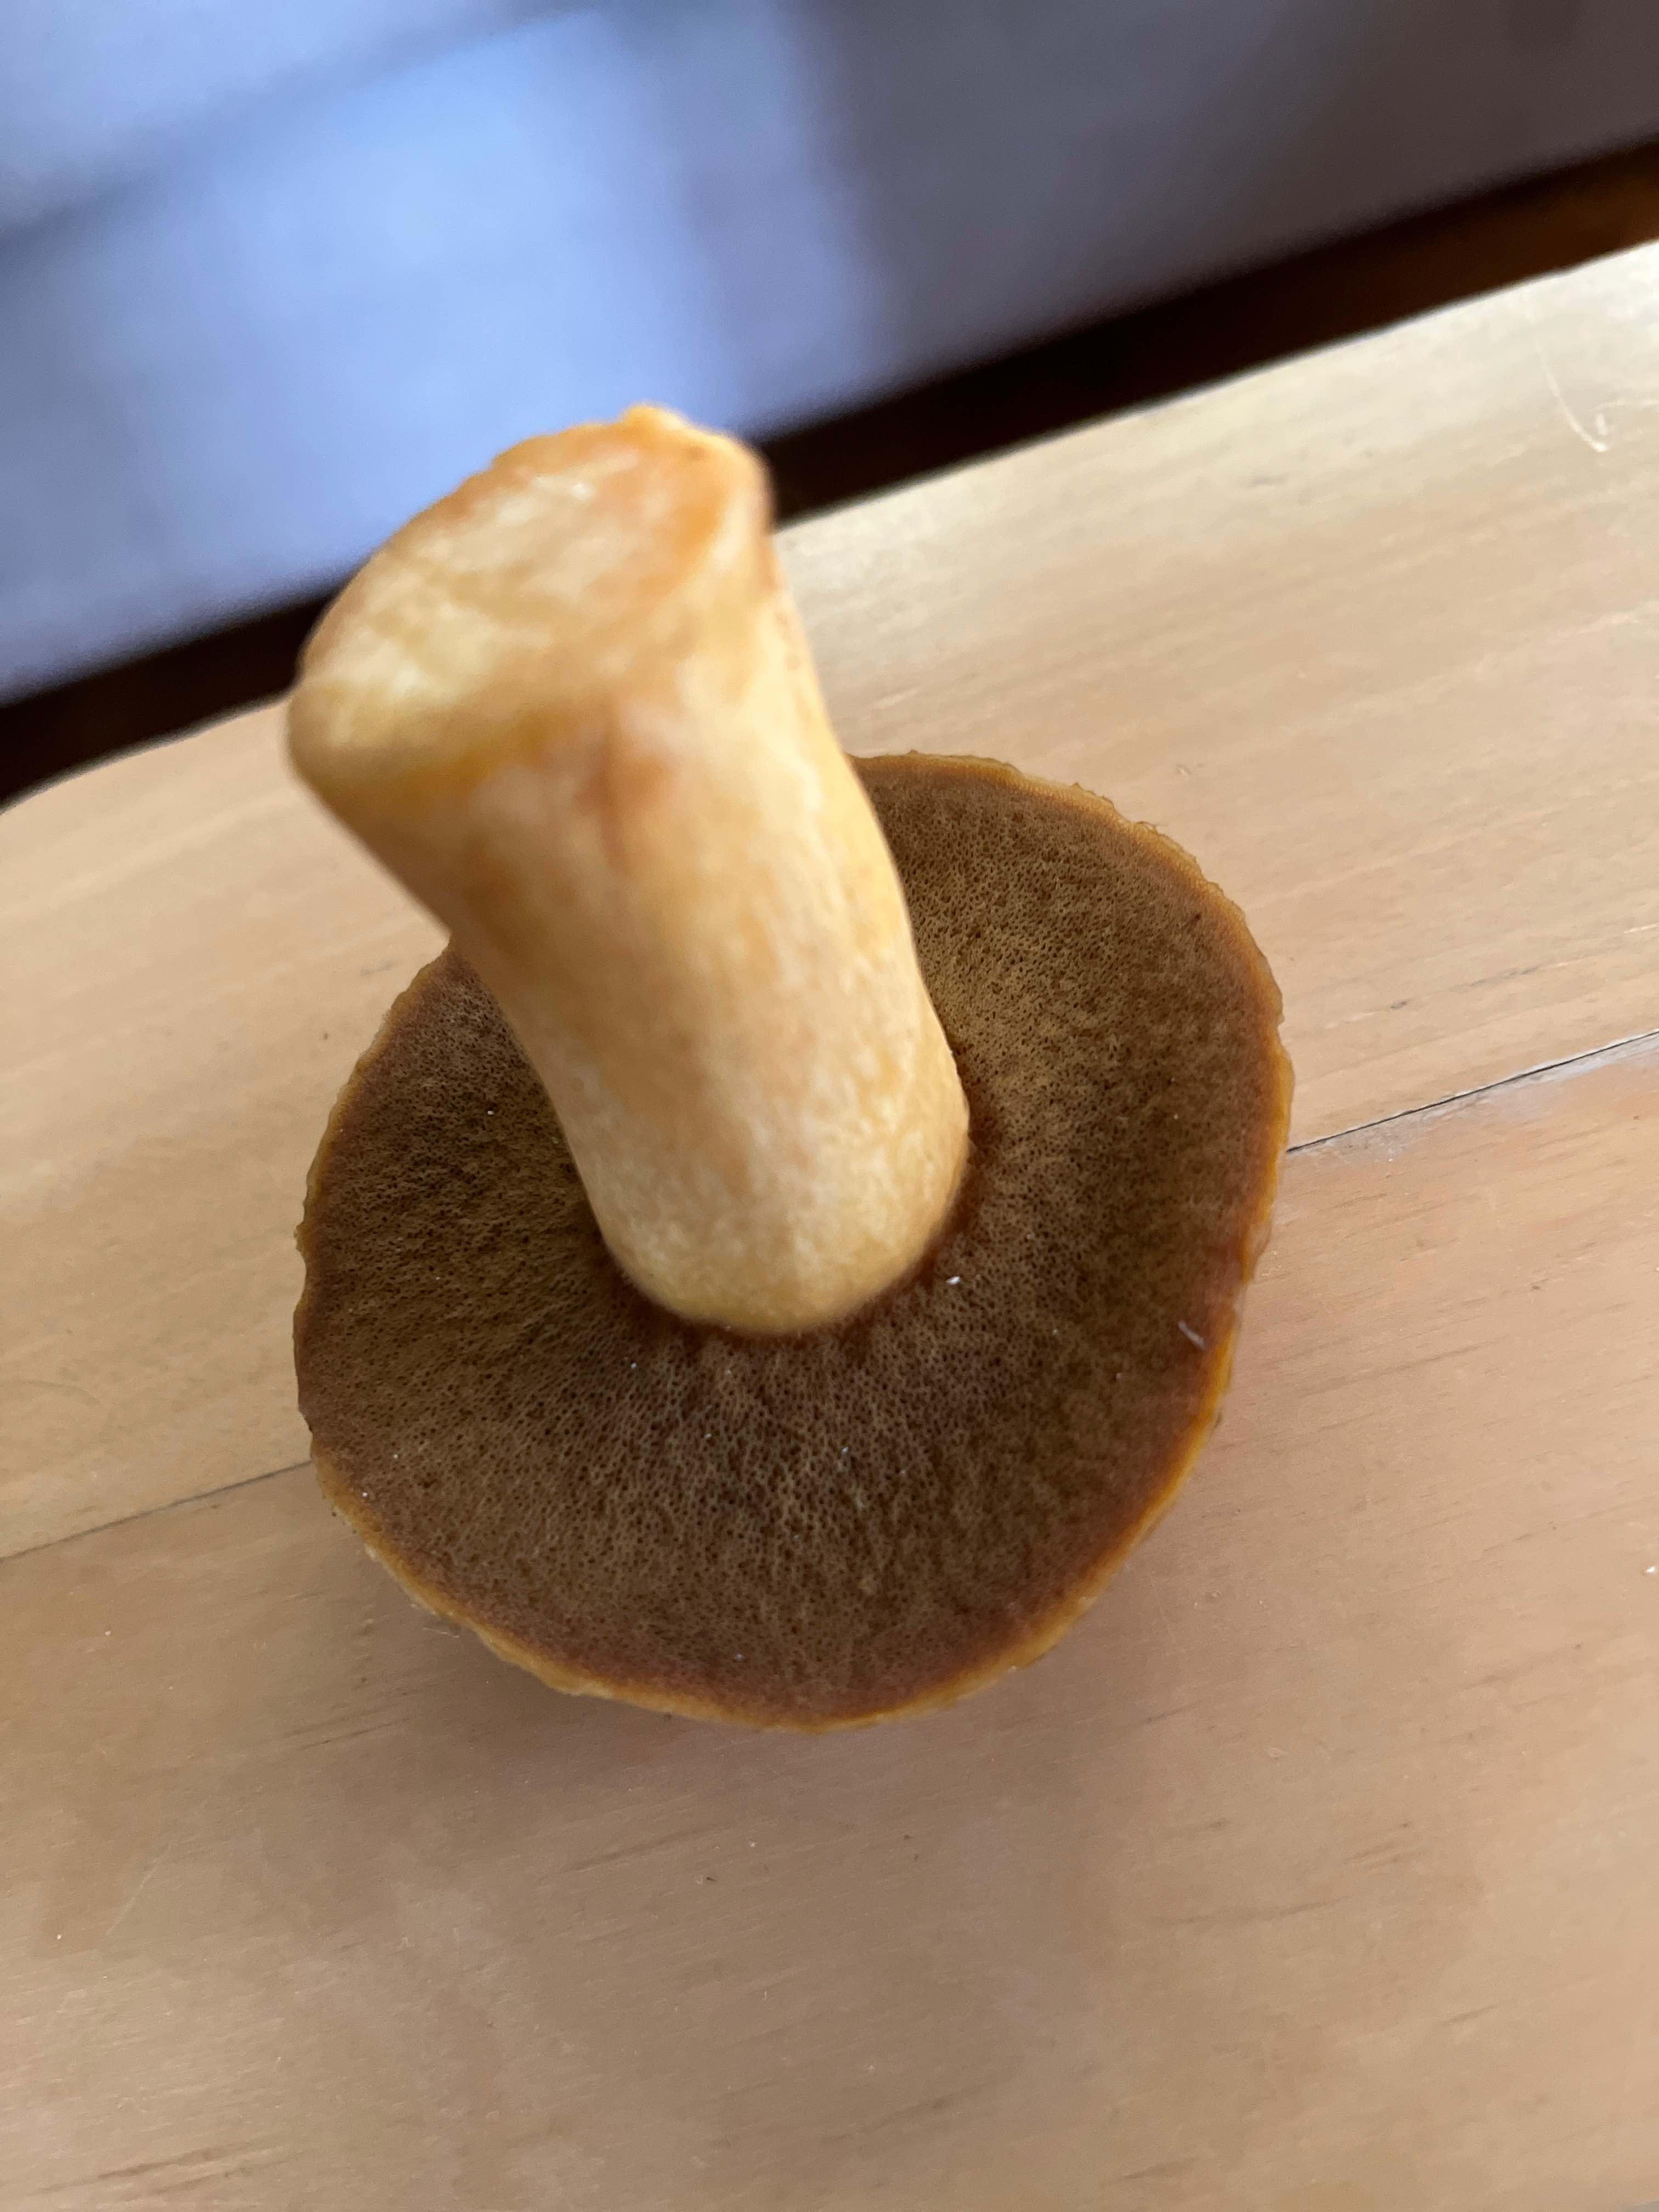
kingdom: Fungi
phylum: Basidiomycota
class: Agaricomycetes
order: Boletales
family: Suillaceae
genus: Suillus
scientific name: Suillus variegatus
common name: broget slimrørhat
